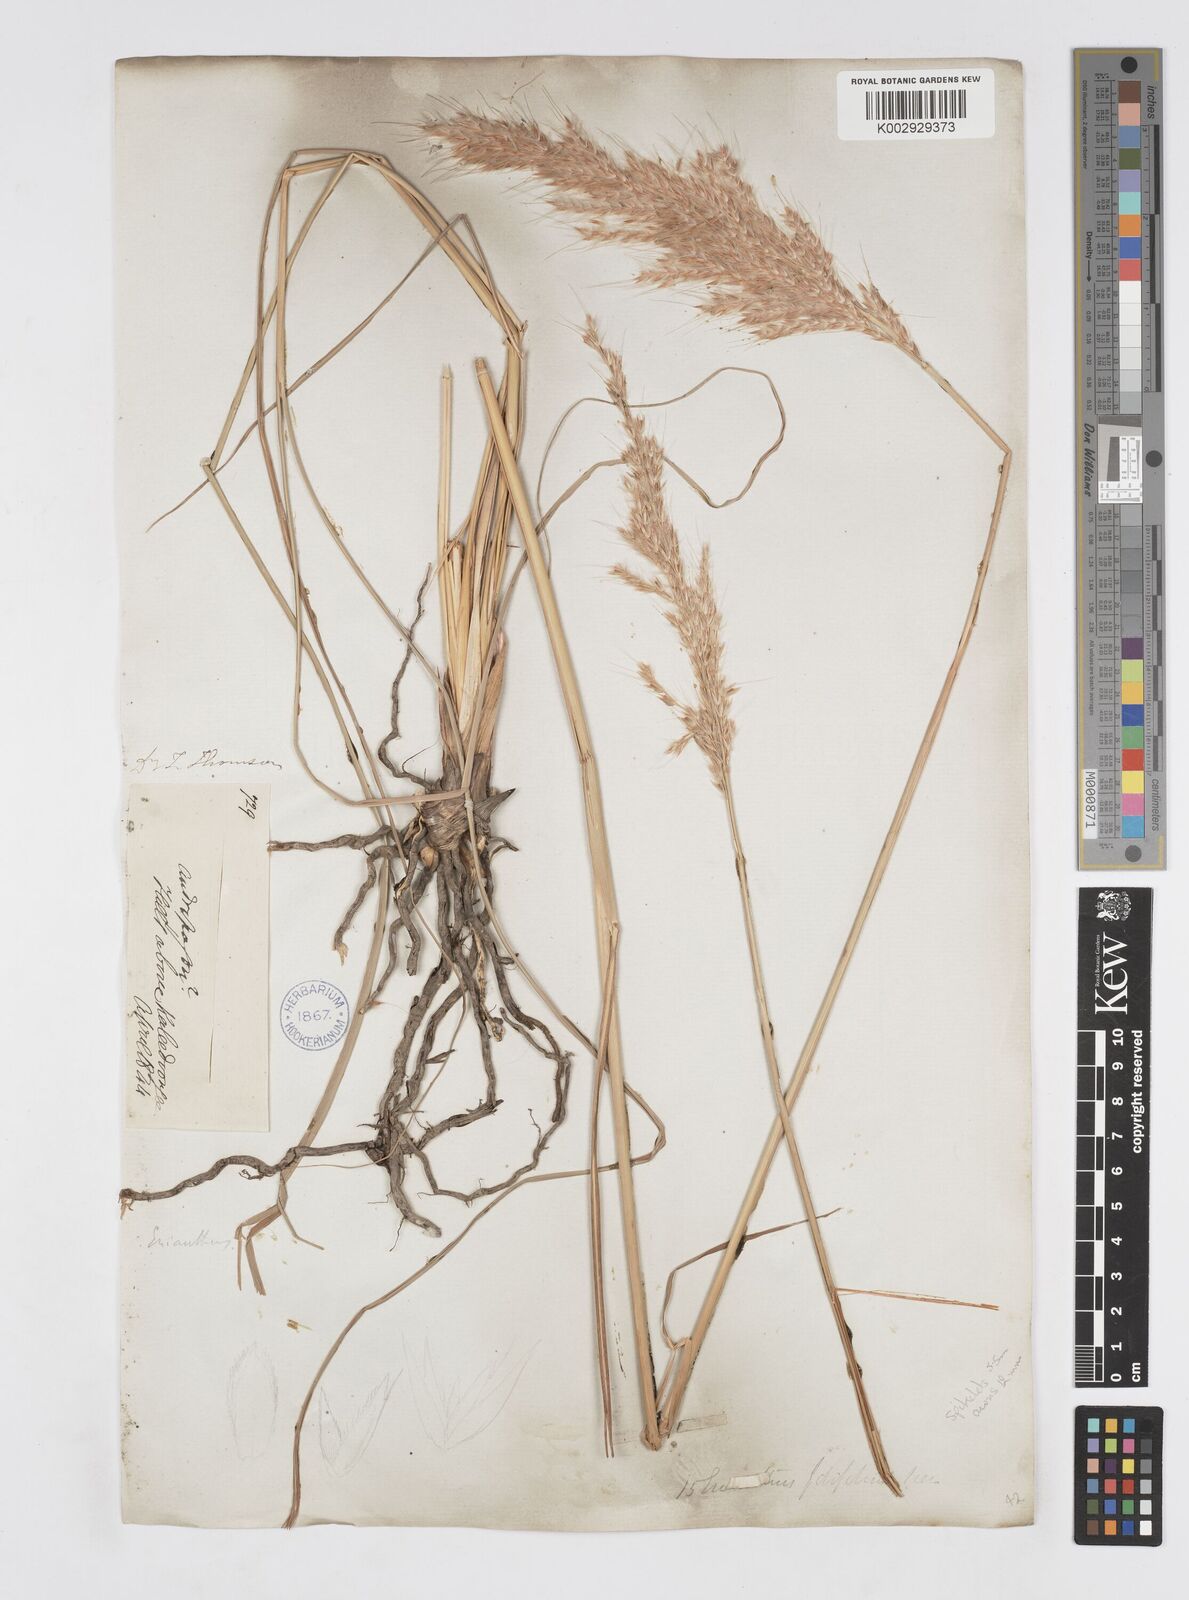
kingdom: Plantae
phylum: Tracheophyta
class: Liliopsida
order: Poales
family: Poaceae
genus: Saccharum
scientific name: Saccharum filifolium
